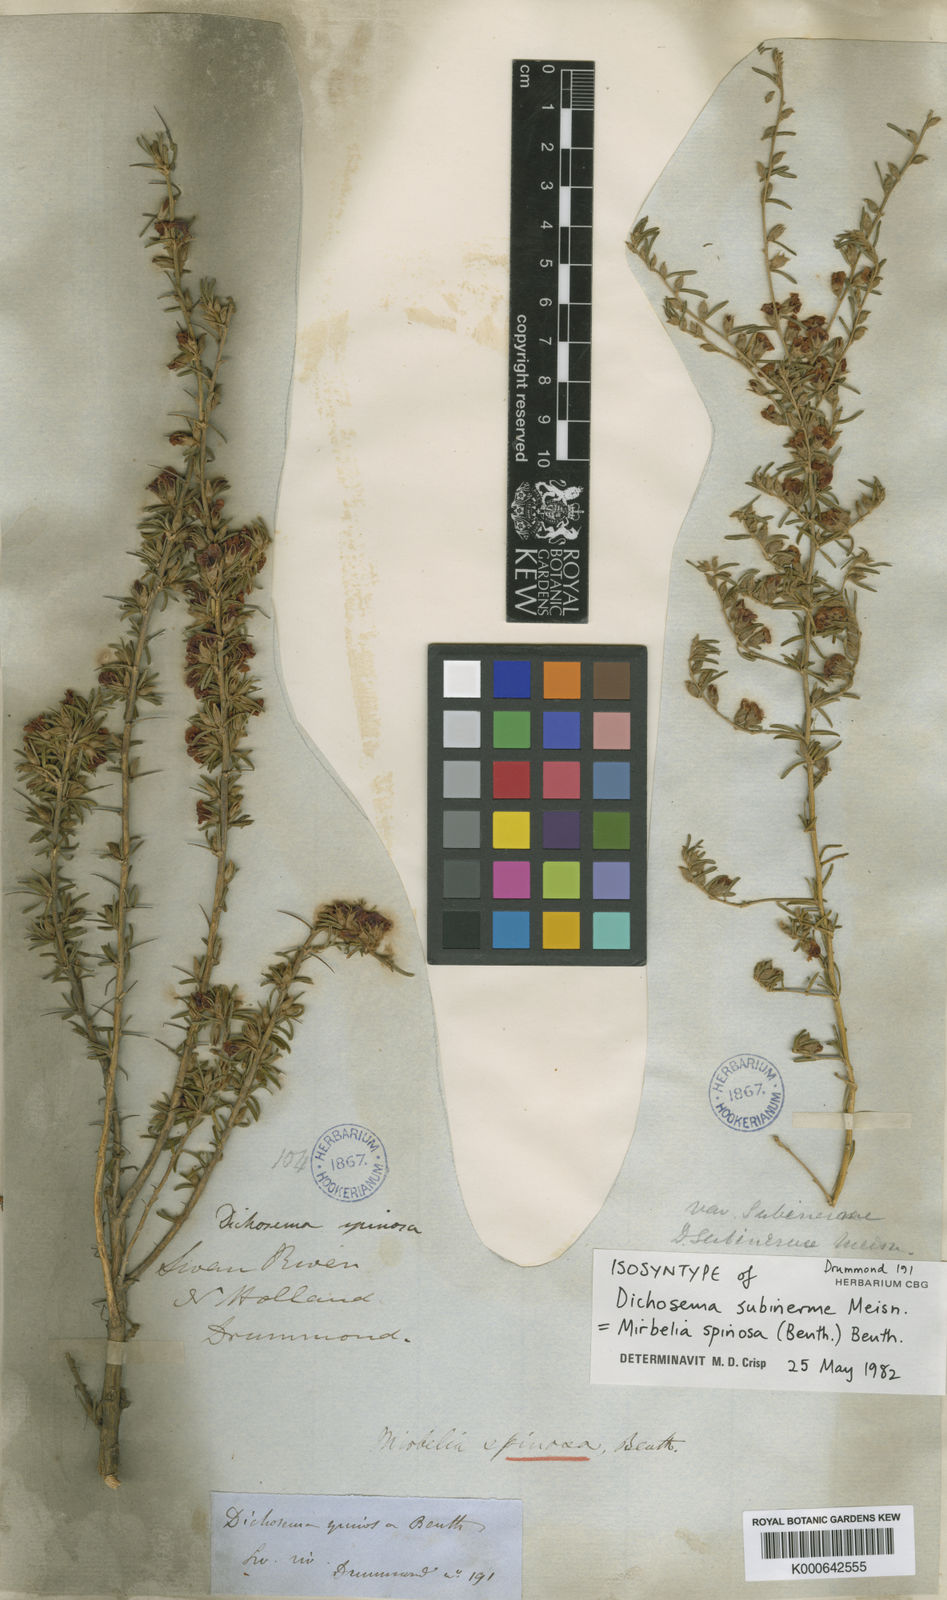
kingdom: Plantae
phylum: Tracheophyta
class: Magnoliopsida
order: Fabales
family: Fabaceae
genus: Mirbelia
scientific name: Mirbelia spinosa
